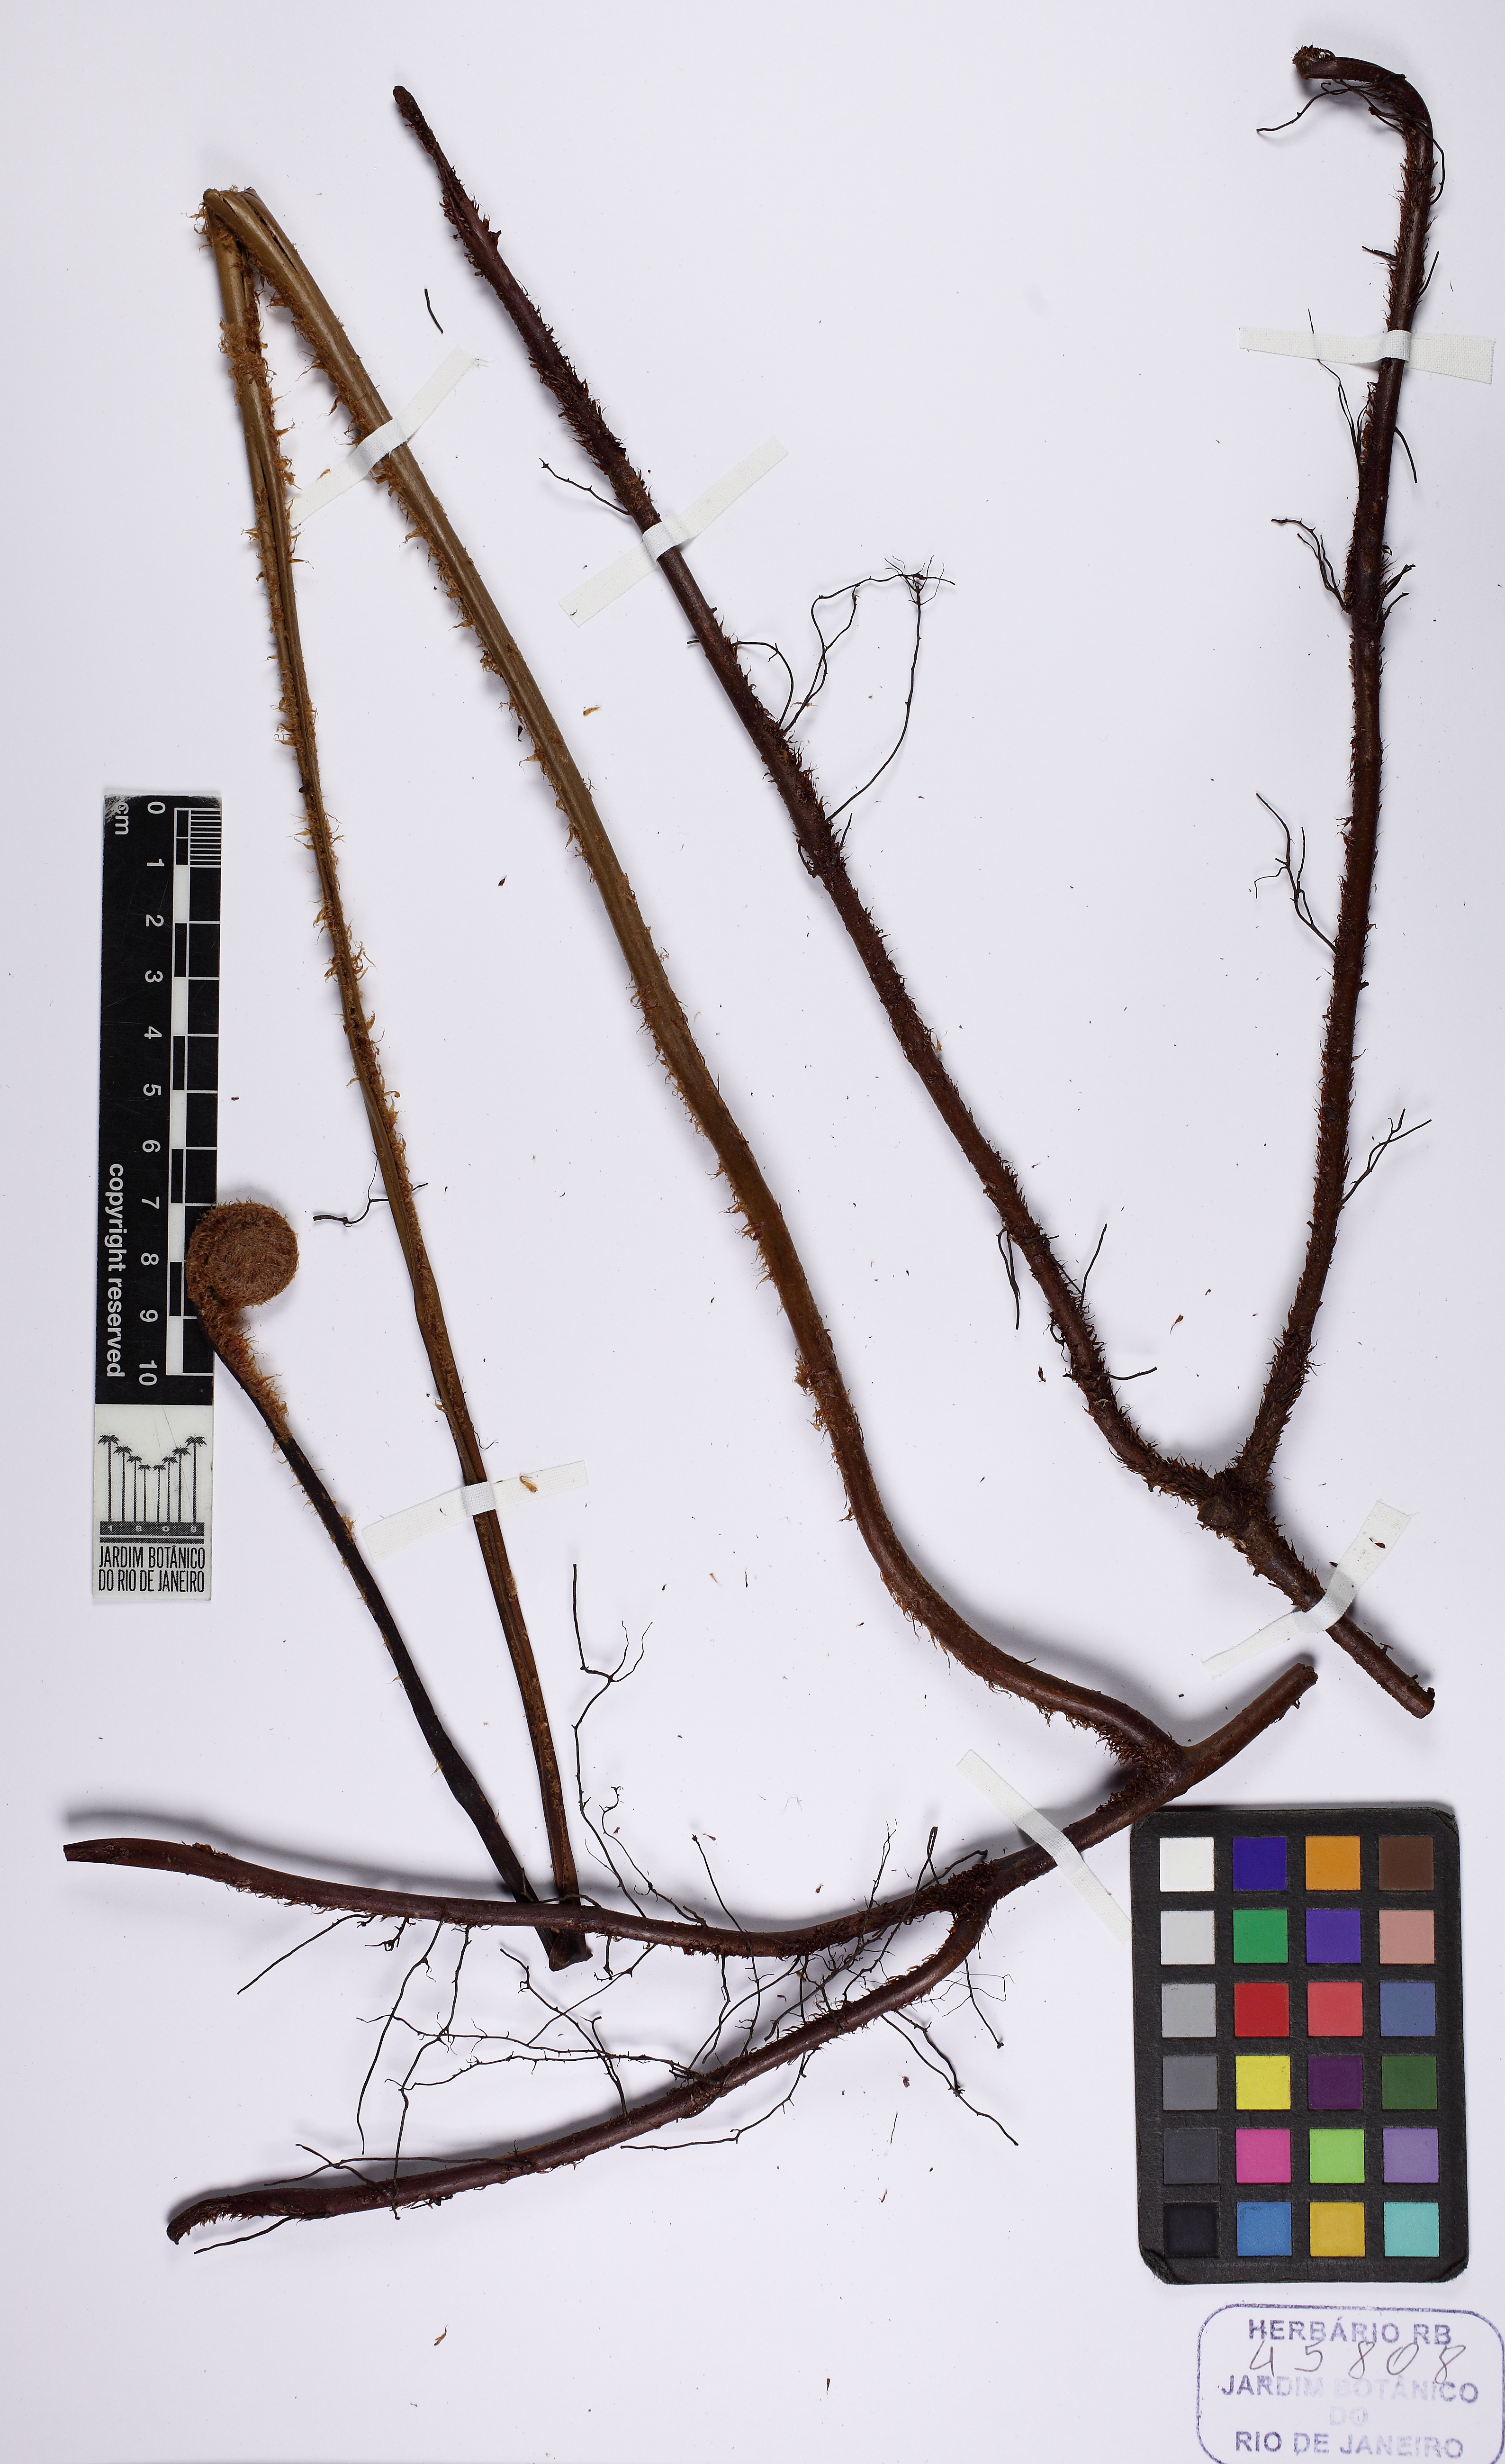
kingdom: Plantae
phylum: Tracheophyta
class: Polypodiopsida
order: Gleicheniales
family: Gleicheniaceae
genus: Sticherus
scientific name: Sticherus squamosus
